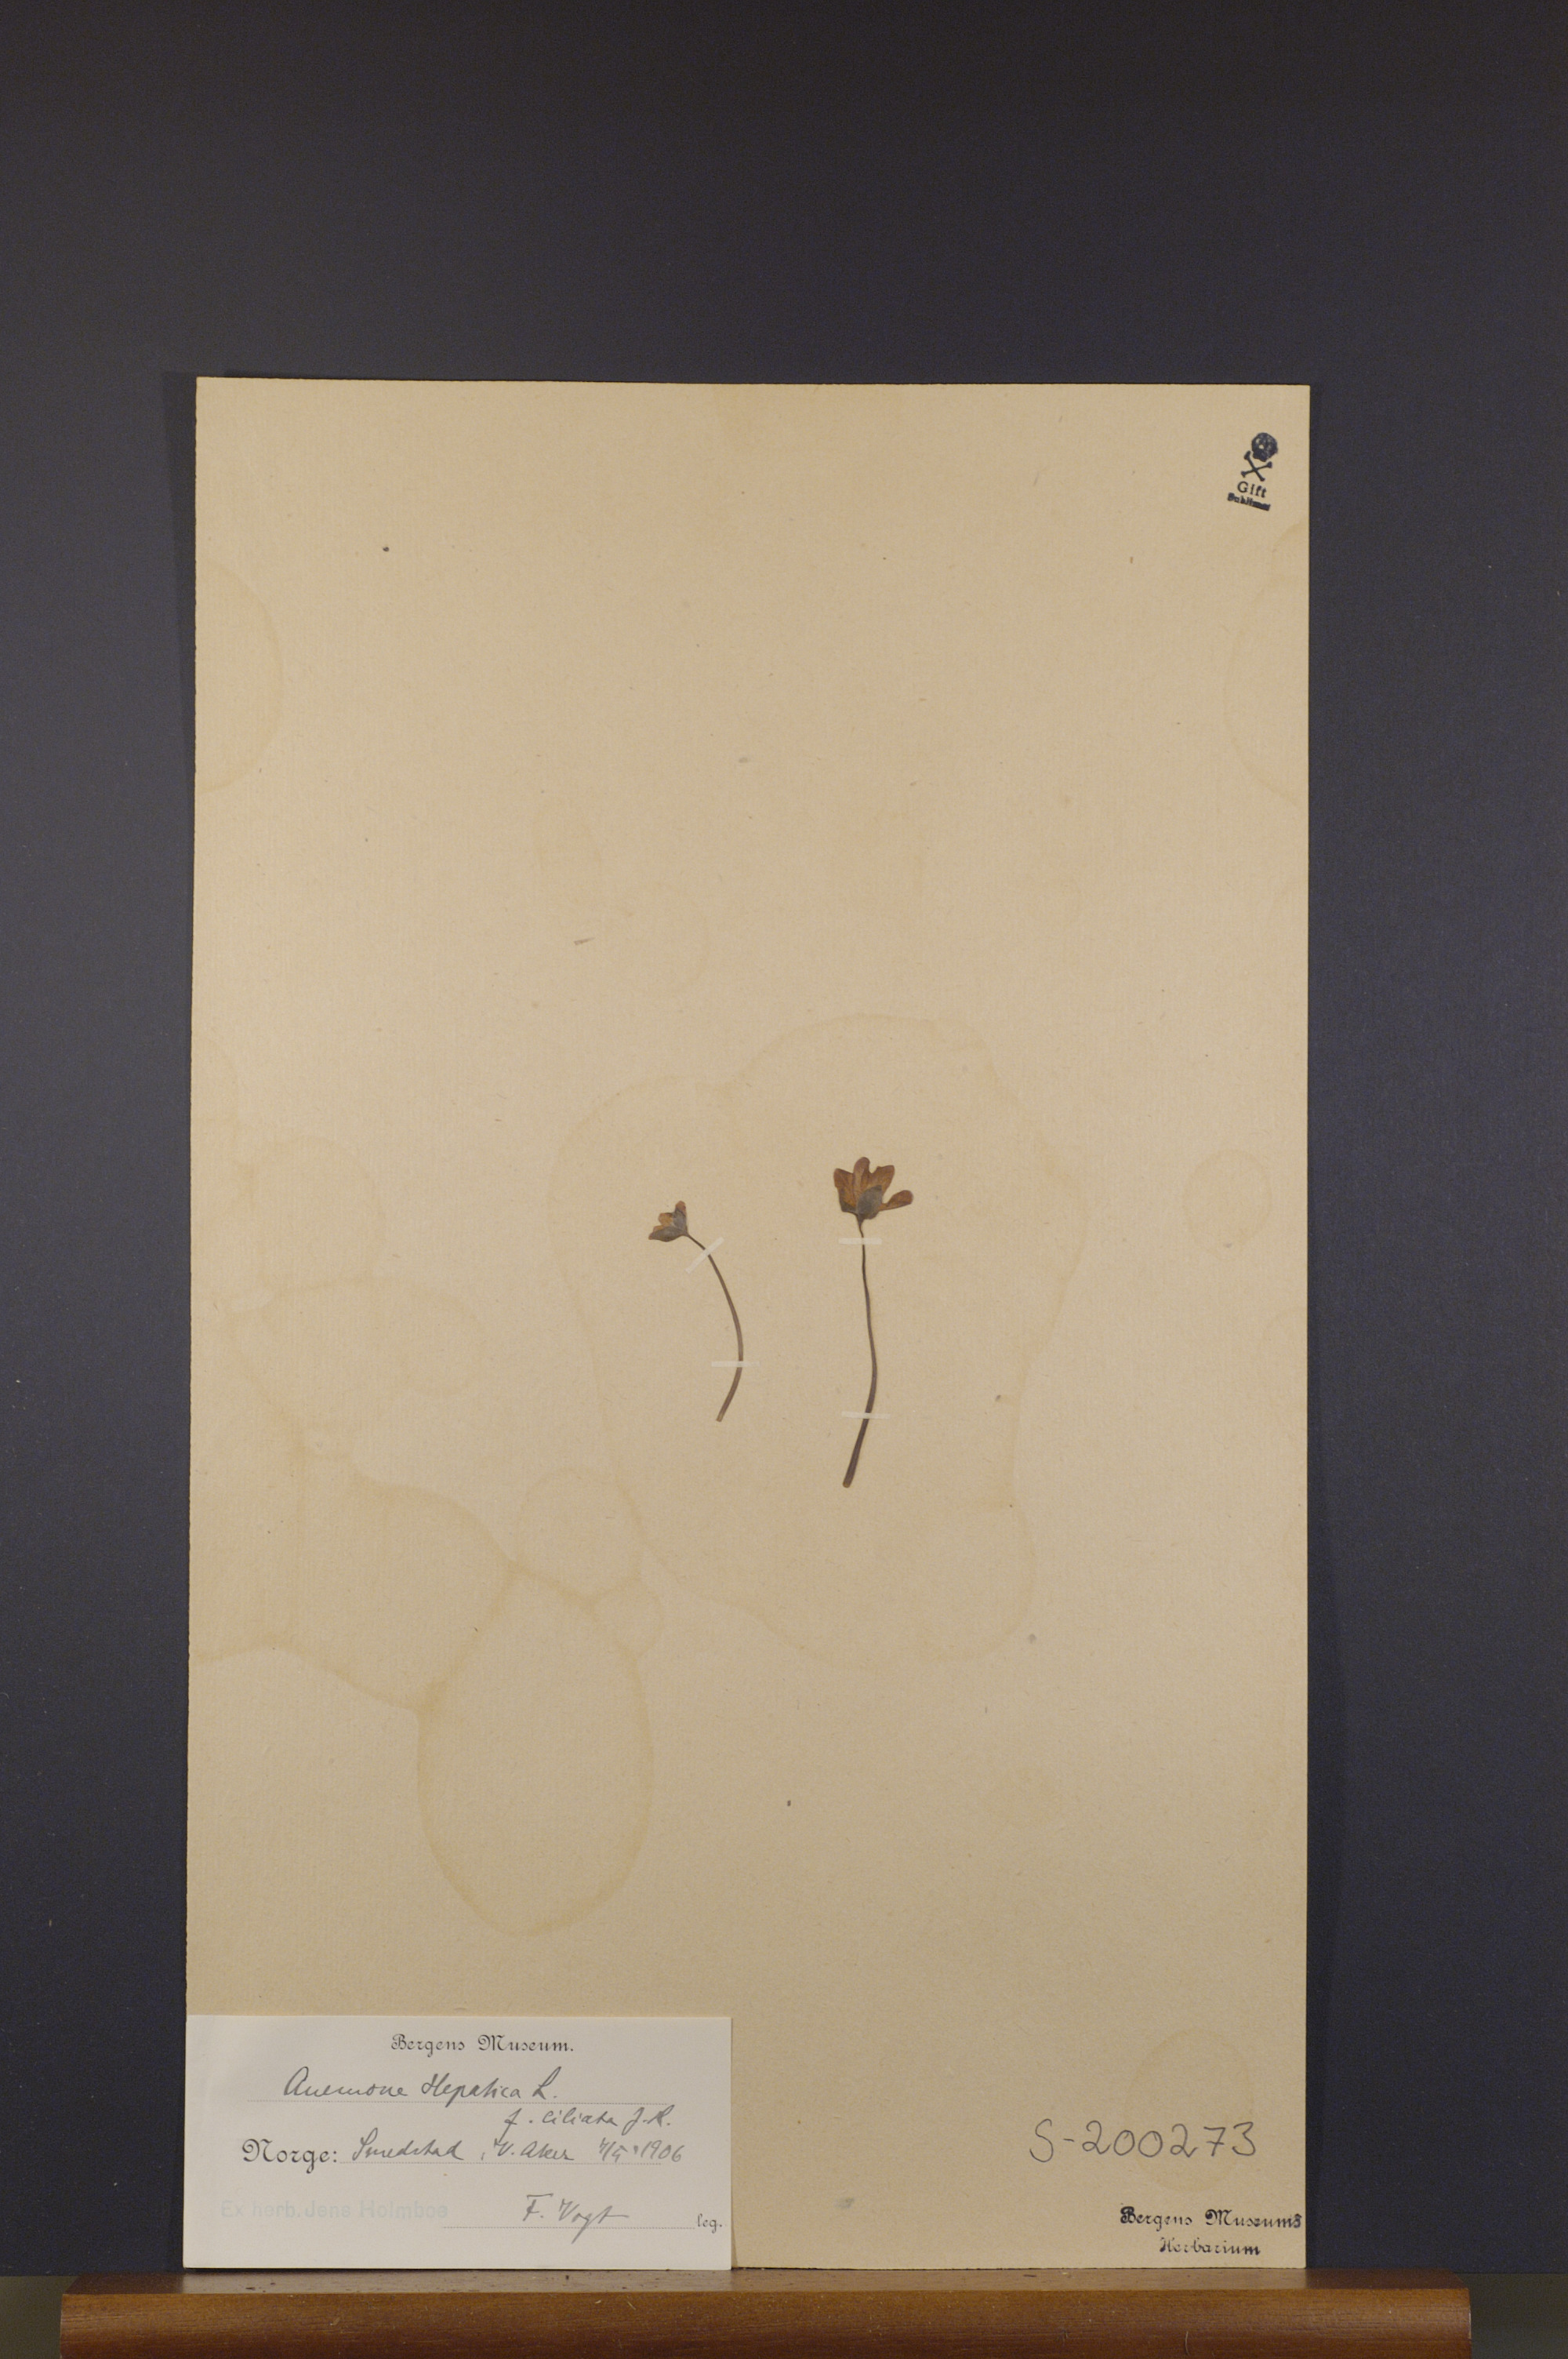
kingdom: Plantae
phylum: Tracheophyta
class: Magnoliopsida
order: Ranunculales
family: Ranunculaceae
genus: Hepatica
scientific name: Hepatica nobilis
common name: Liverleaf
